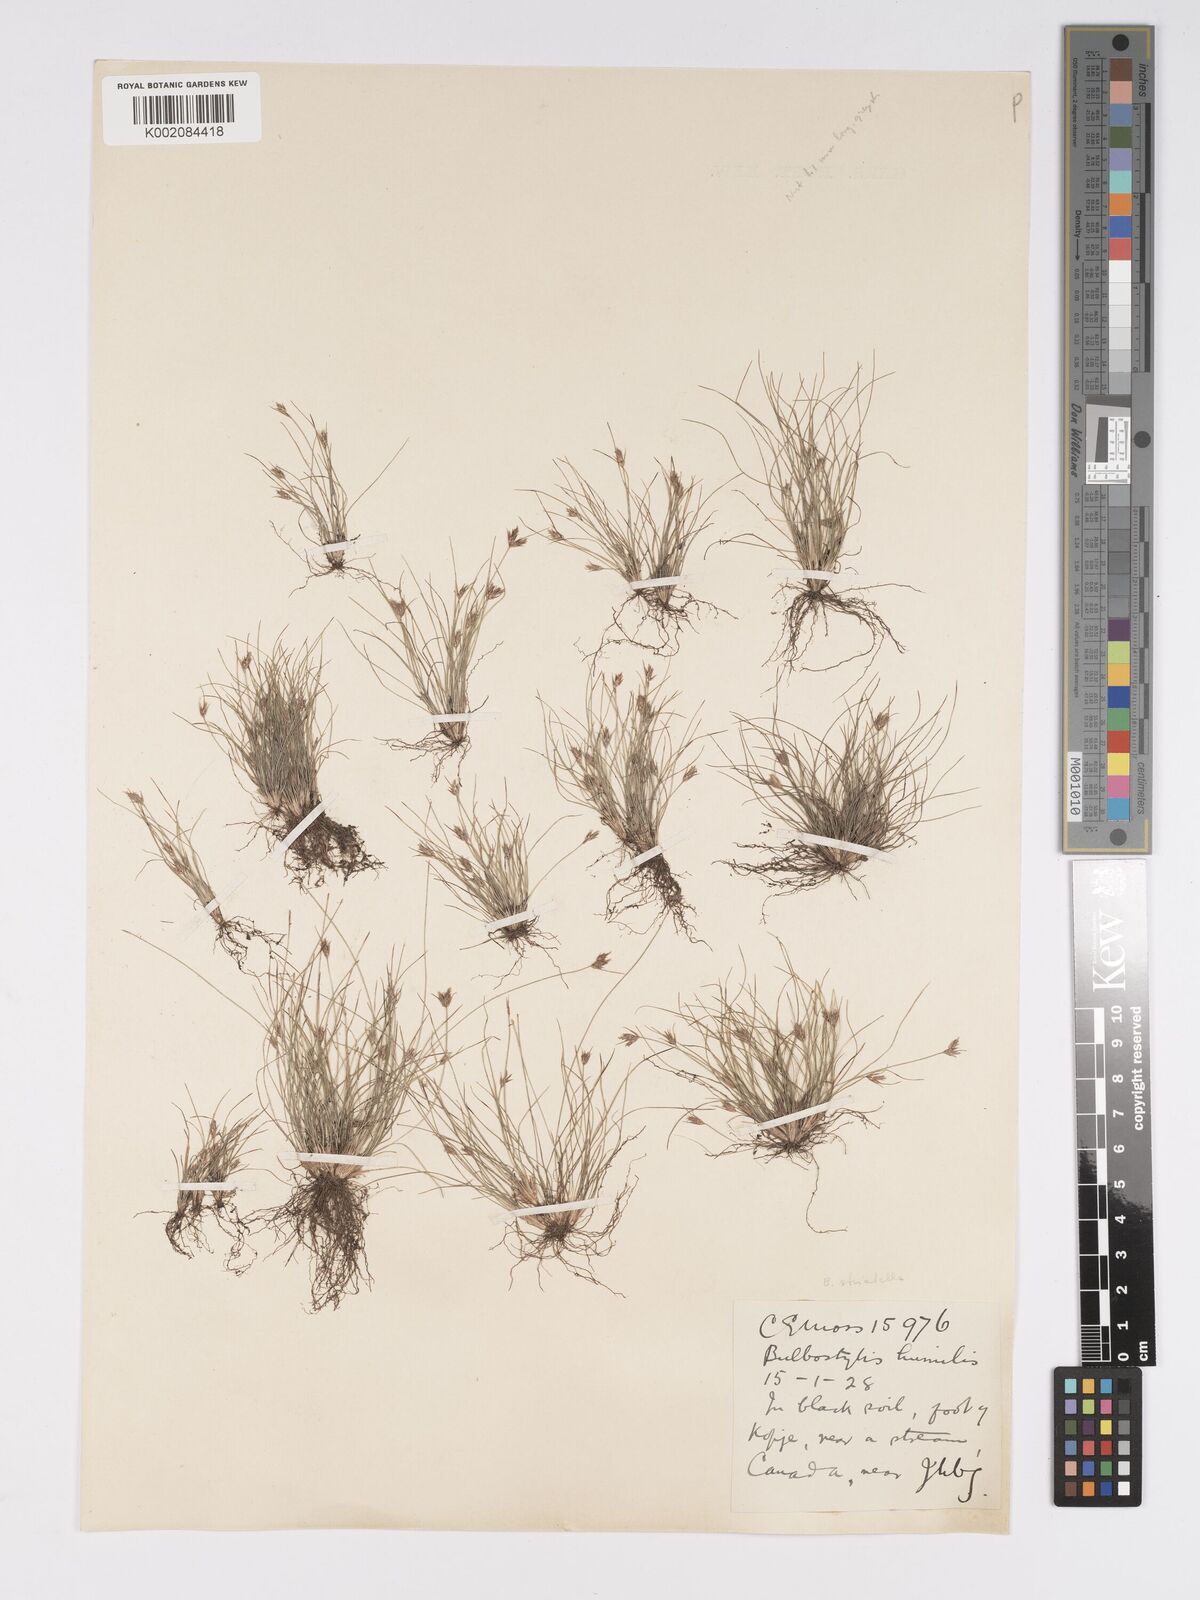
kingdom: Plantae
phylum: Tracheophyta
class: Liliopsida
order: Poales
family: Cyperaceae
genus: Bulbostylis
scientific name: Bulbostylis humilis
